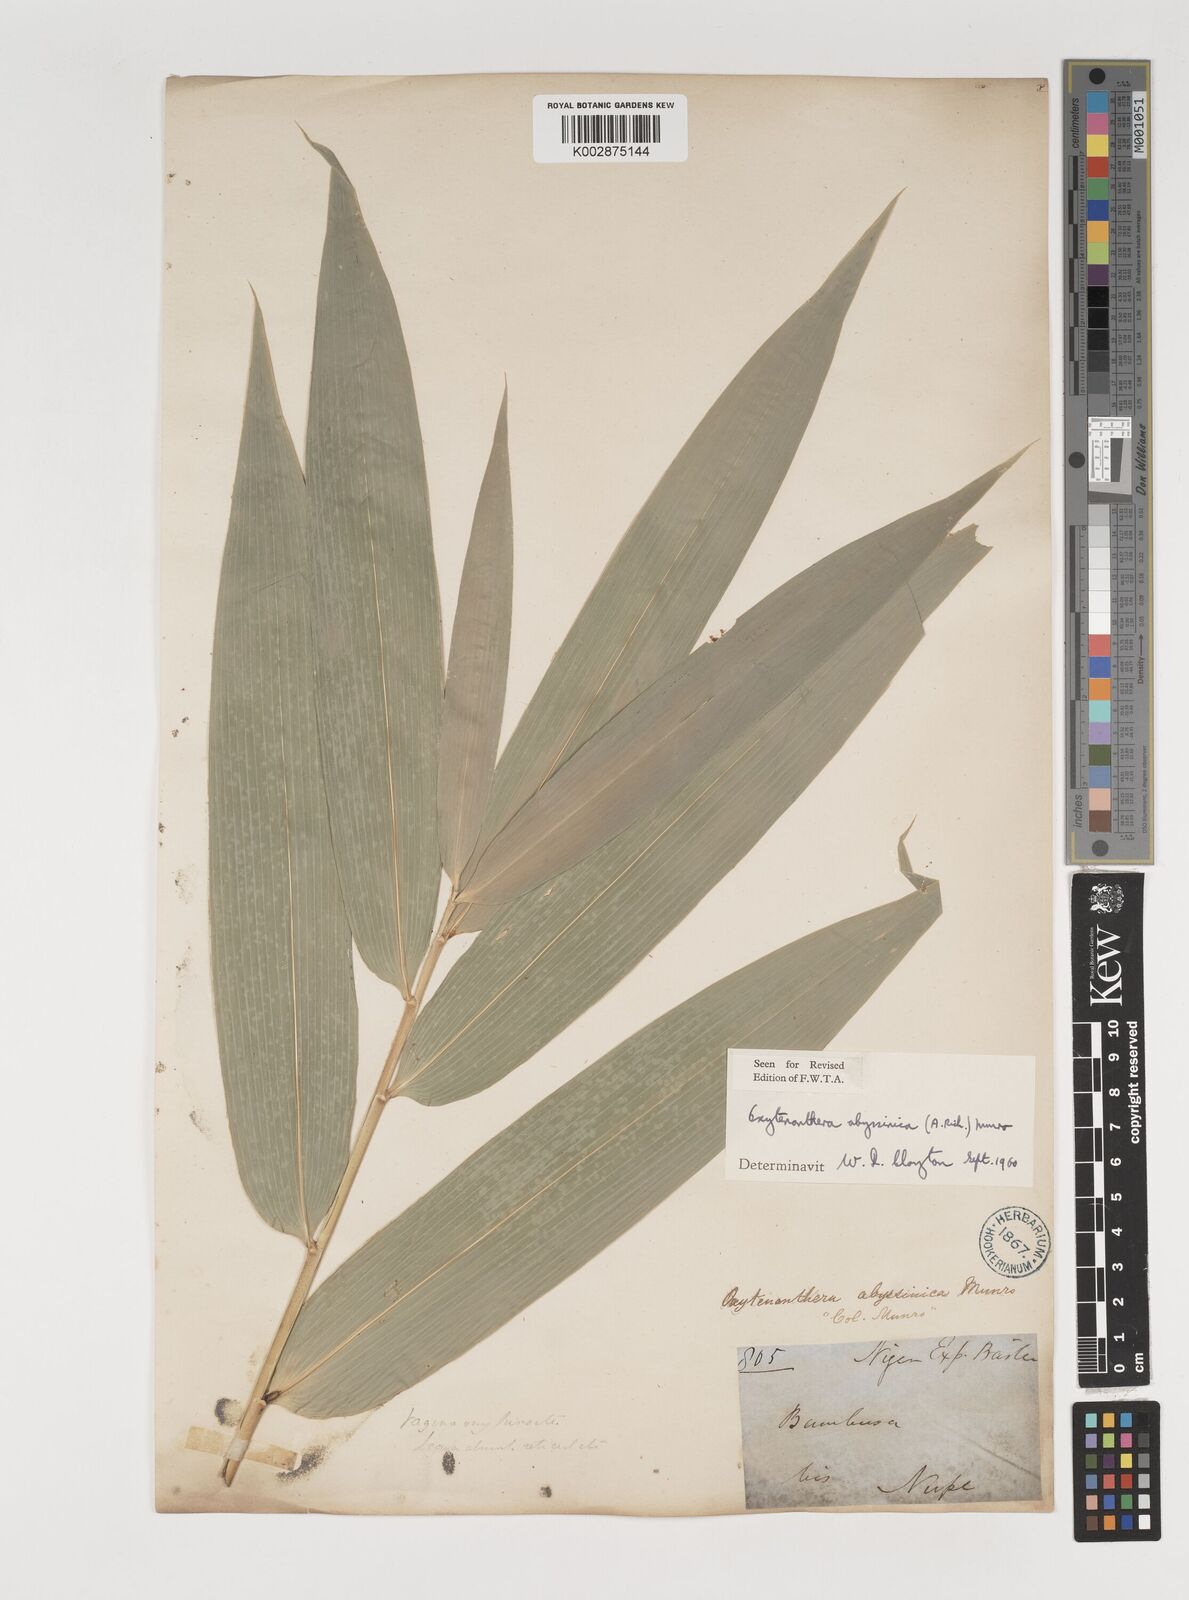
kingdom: Plantae
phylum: Tracheophyta
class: Liliopsida
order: Poales
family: Poaceae
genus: Oxytenanthera
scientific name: Oxytenanthera abyssinica
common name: Wine bamboo
